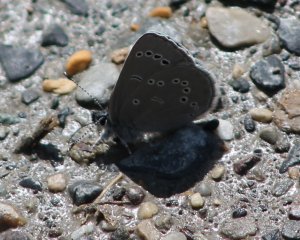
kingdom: Animalia
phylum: Arthropoda
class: Insecta
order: Lepidoptera
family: Lycaenidae
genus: Glaucopsyche
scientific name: Glaucopsyche lygdamus
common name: Silvery Blue
